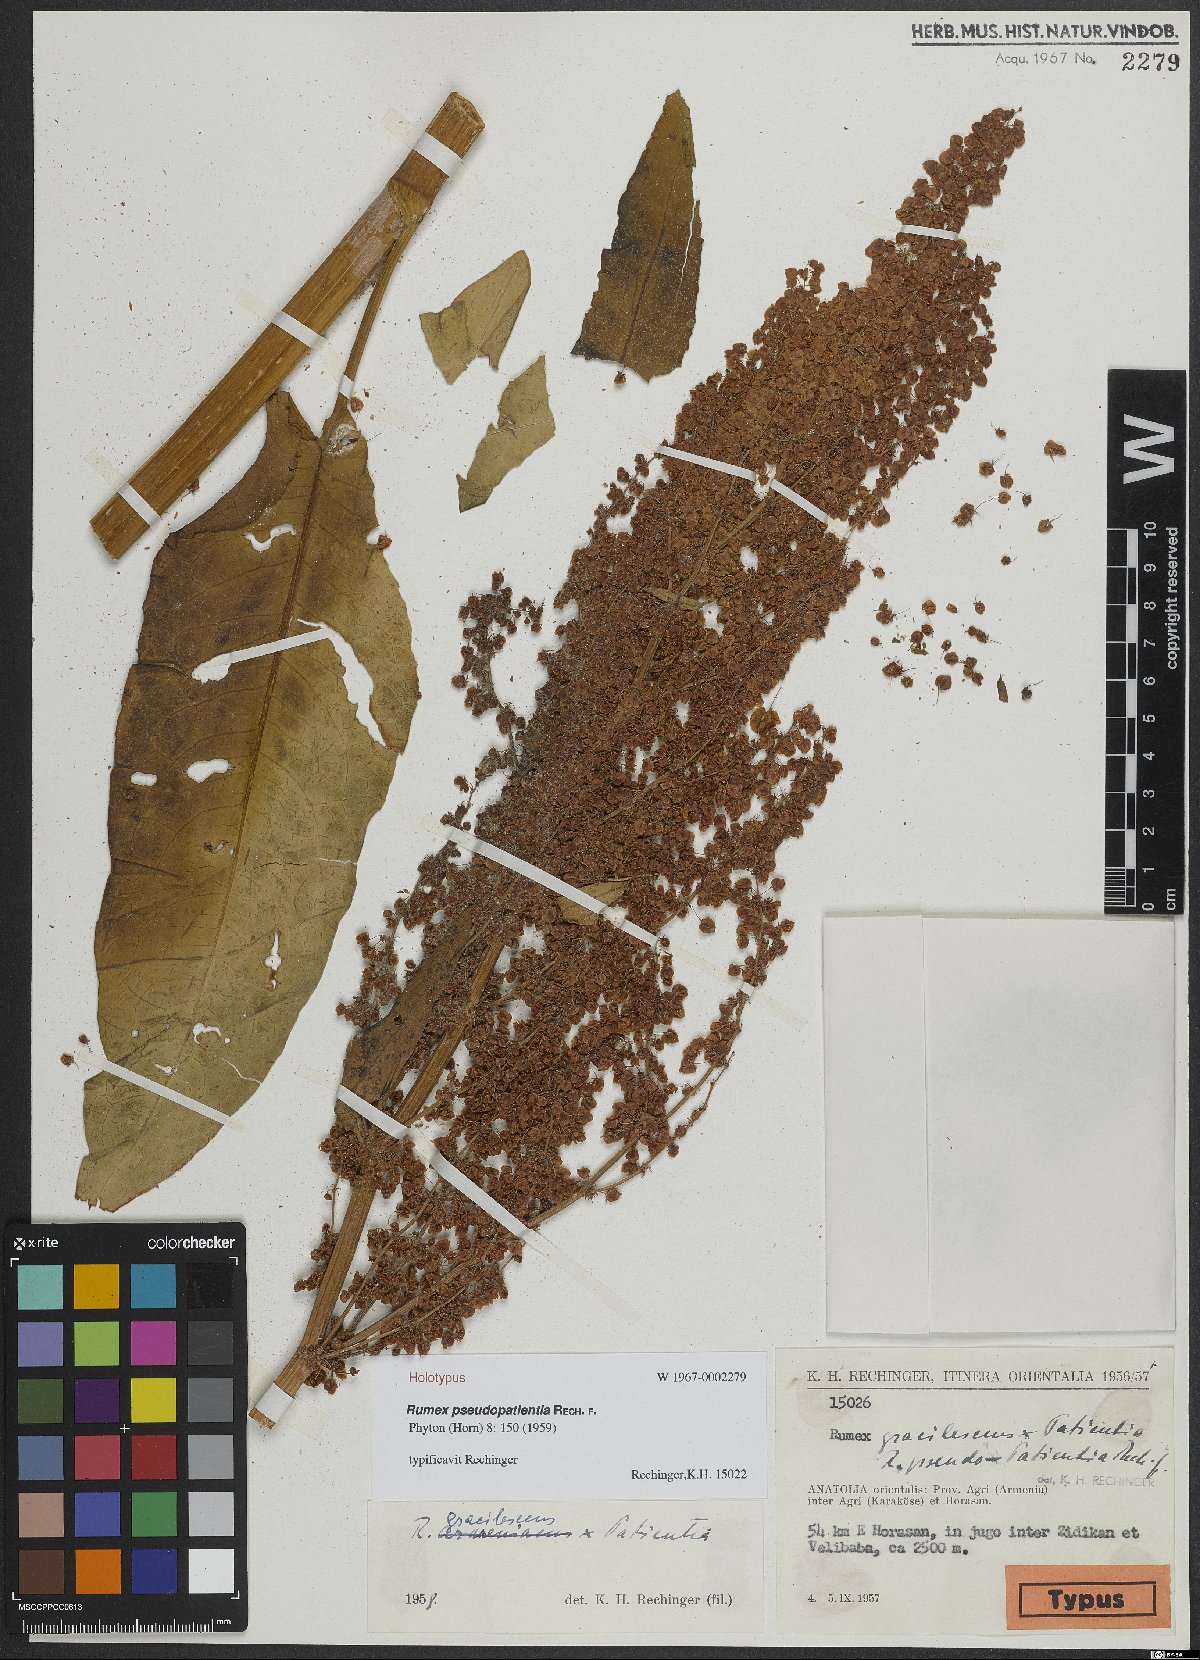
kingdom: Plantae
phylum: Tracheophyta
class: Magnoliopsida
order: Caryophyllales
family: Polygonaceae
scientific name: Polygonaceae
